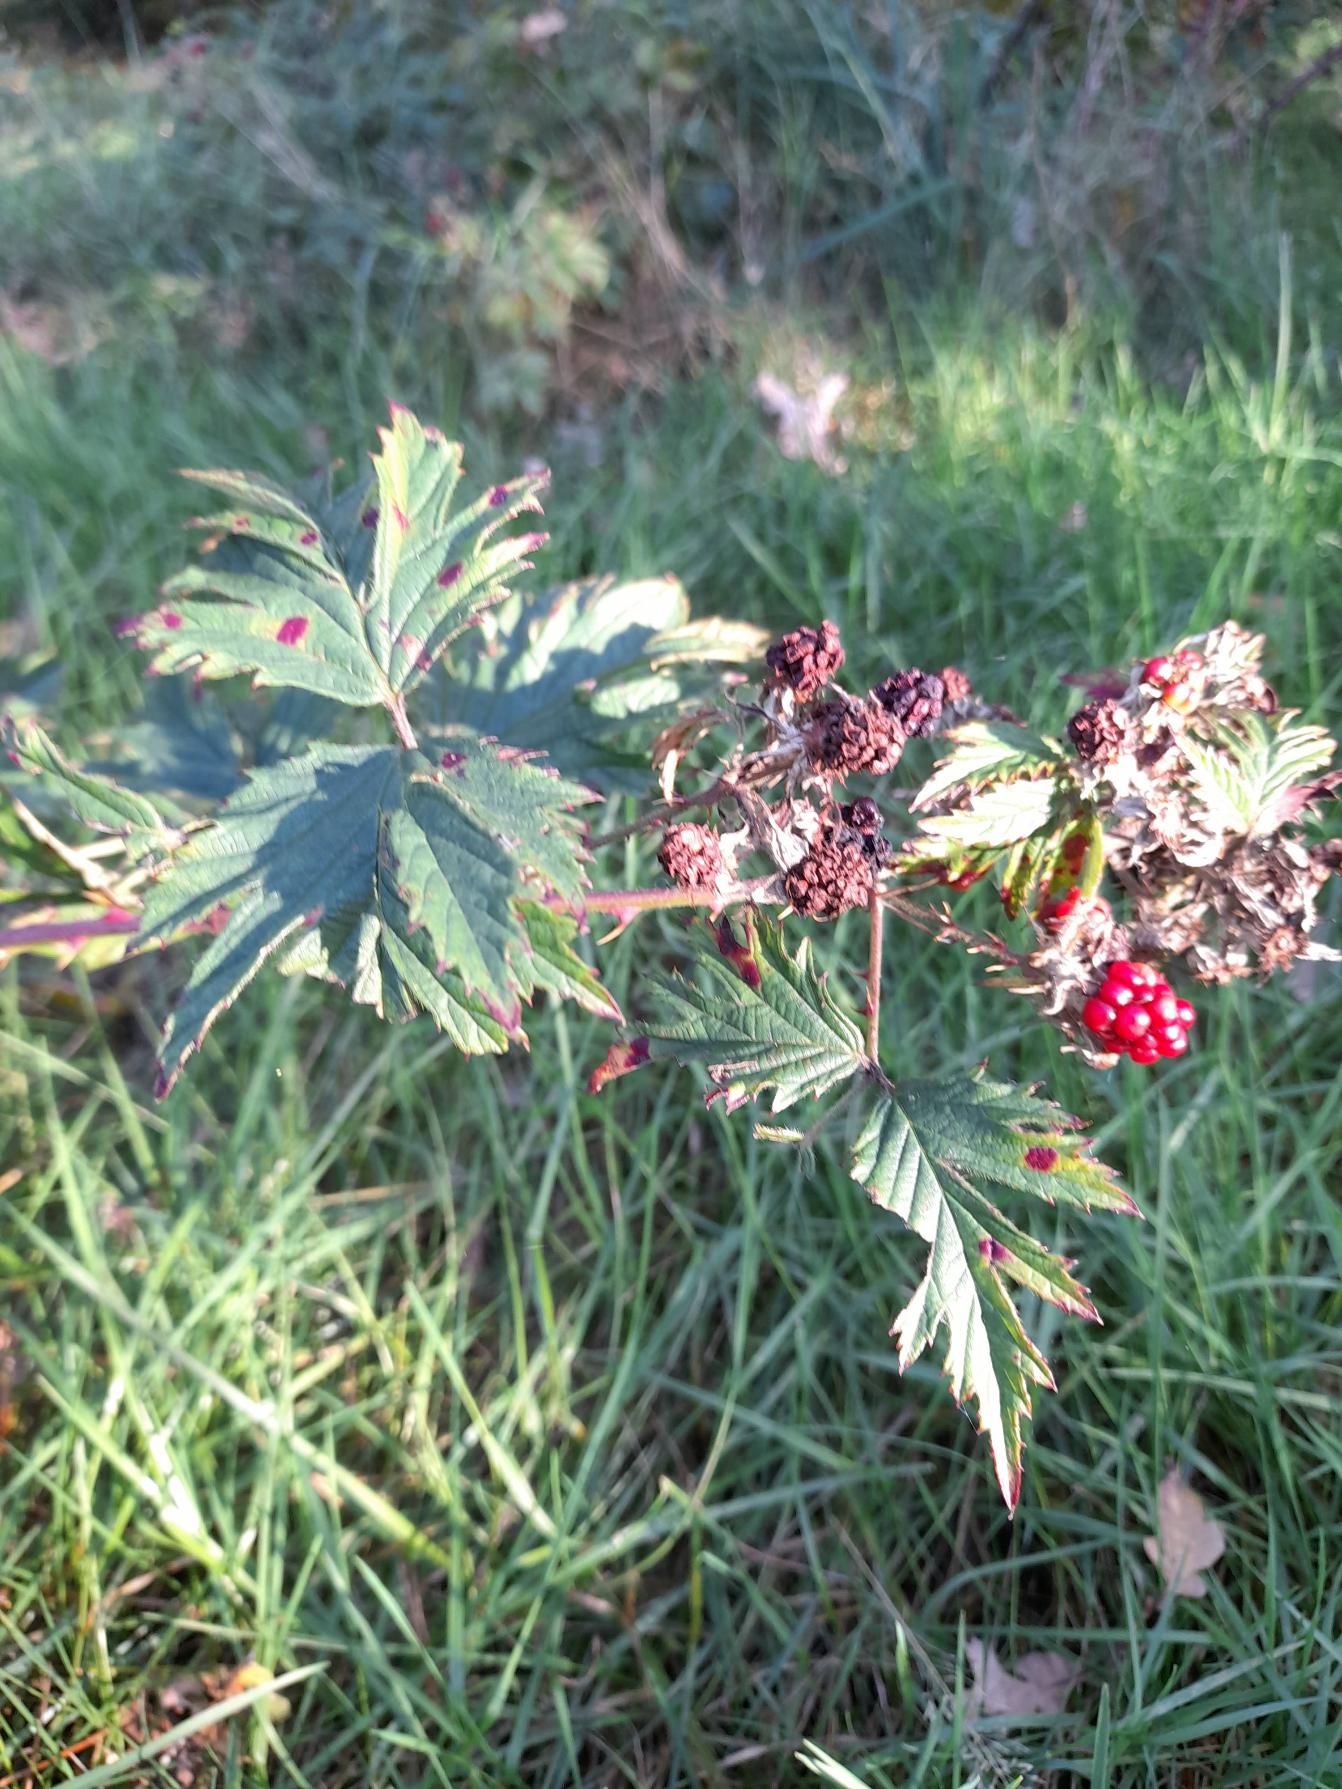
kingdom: Plantae
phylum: Tracheophyta
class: Magnoliopsida
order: Rosales
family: Rosaceae
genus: Rubus
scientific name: Rubus laciniatus
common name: Fliget brombær
